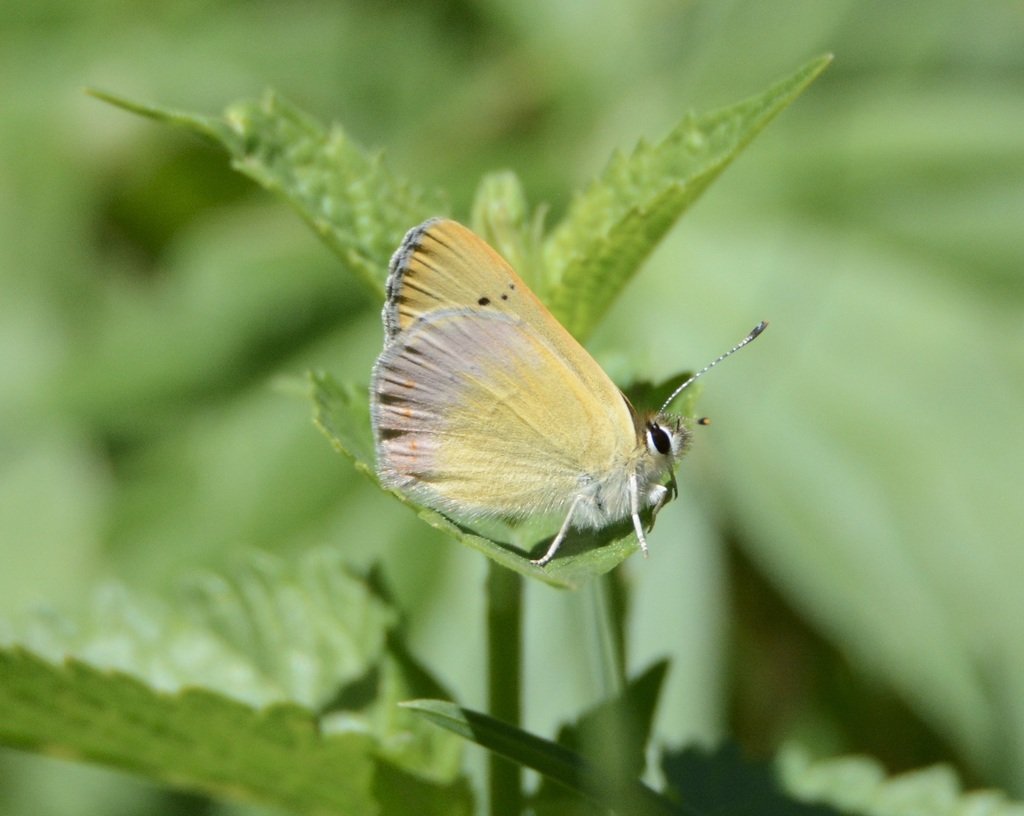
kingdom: Animalia
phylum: Arthropoda
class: Insecta
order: Lepidoptera
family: Lycaenidae
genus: Lycaena
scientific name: Lycaena nivalis
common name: Lilac-bordered Copper
